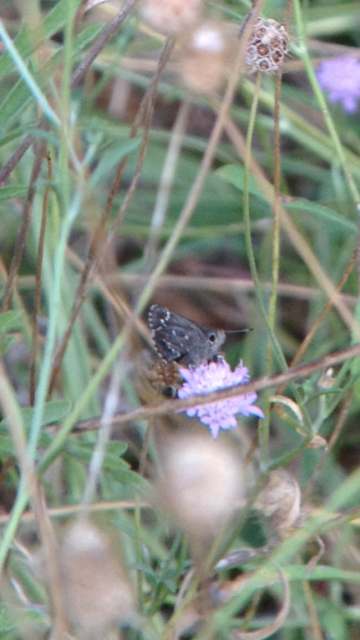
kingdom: Animalia
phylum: Arthropoda
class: Insecta
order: Lepidoptera
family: Hesperiidae
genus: Mastor
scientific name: Mastor celia
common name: Bell's Roadside-Skipper
